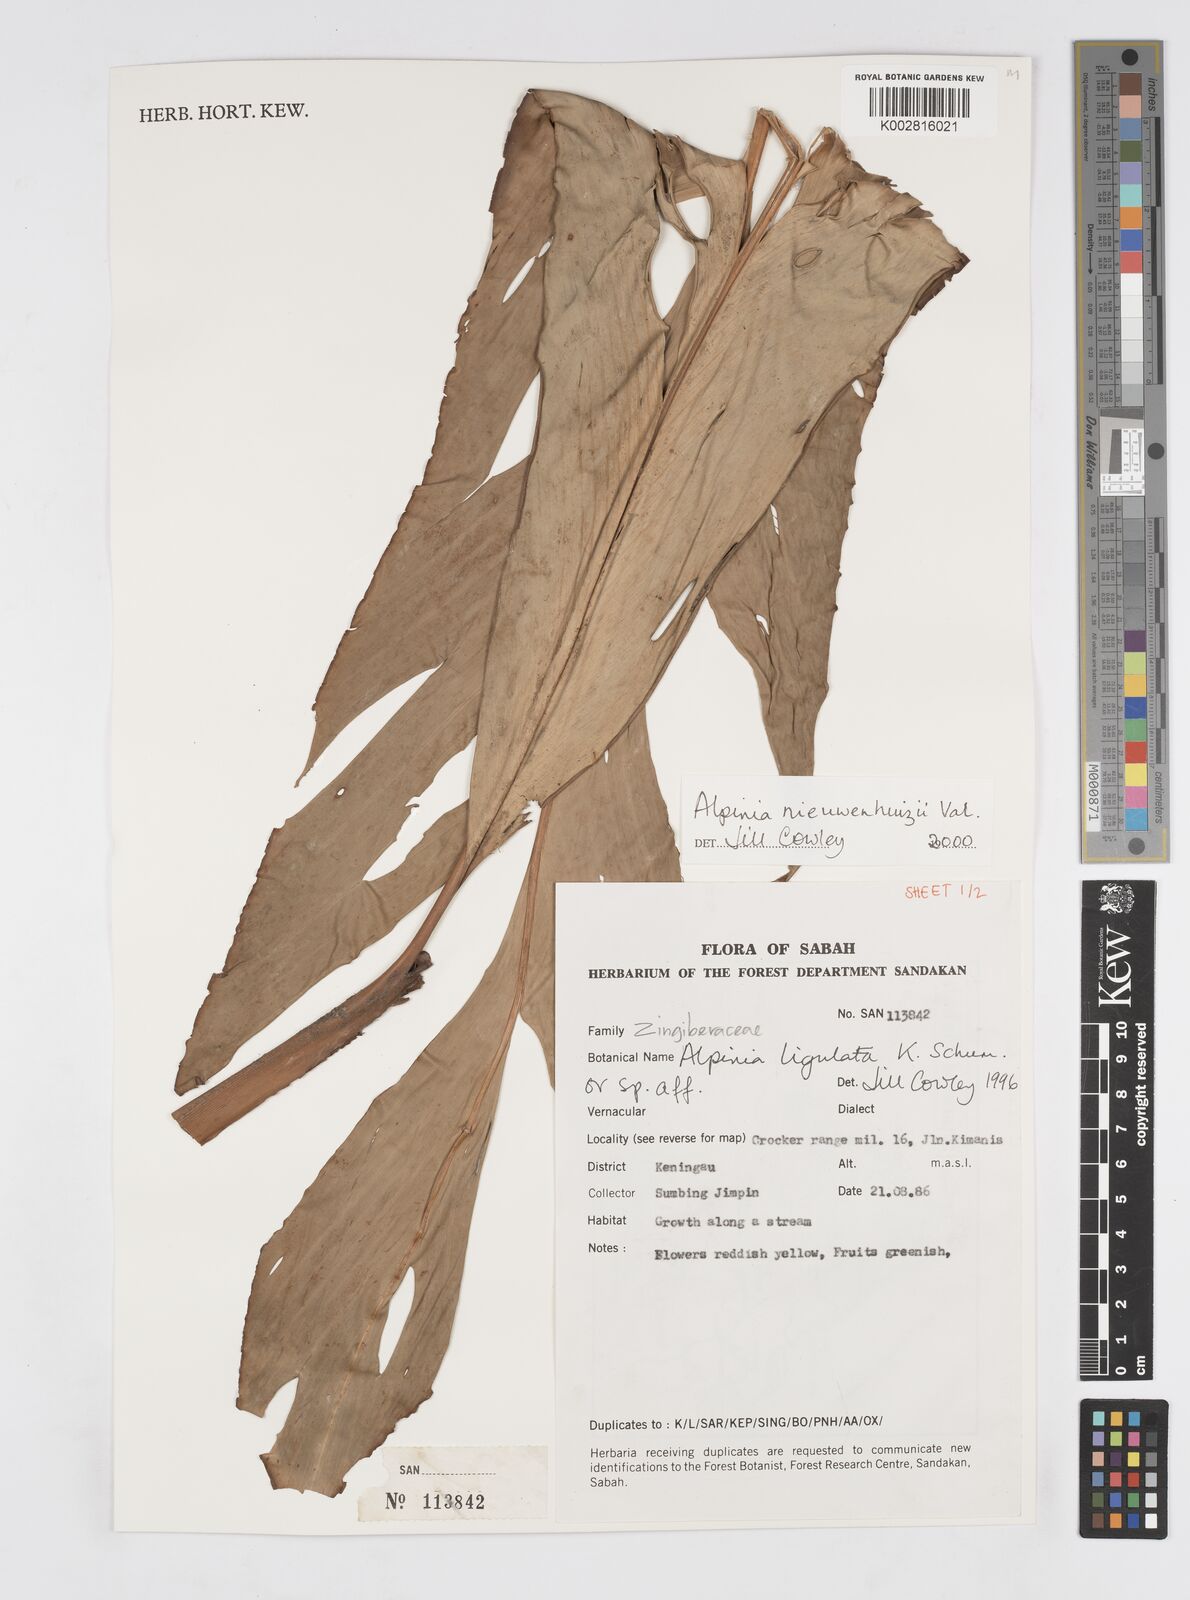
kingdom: Plantae
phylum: Tracheophyta
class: Liliopsida
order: Zingiberales
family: Zingiberaceae
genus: Alpinia
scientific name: Alpinia nieuwenhuizii
